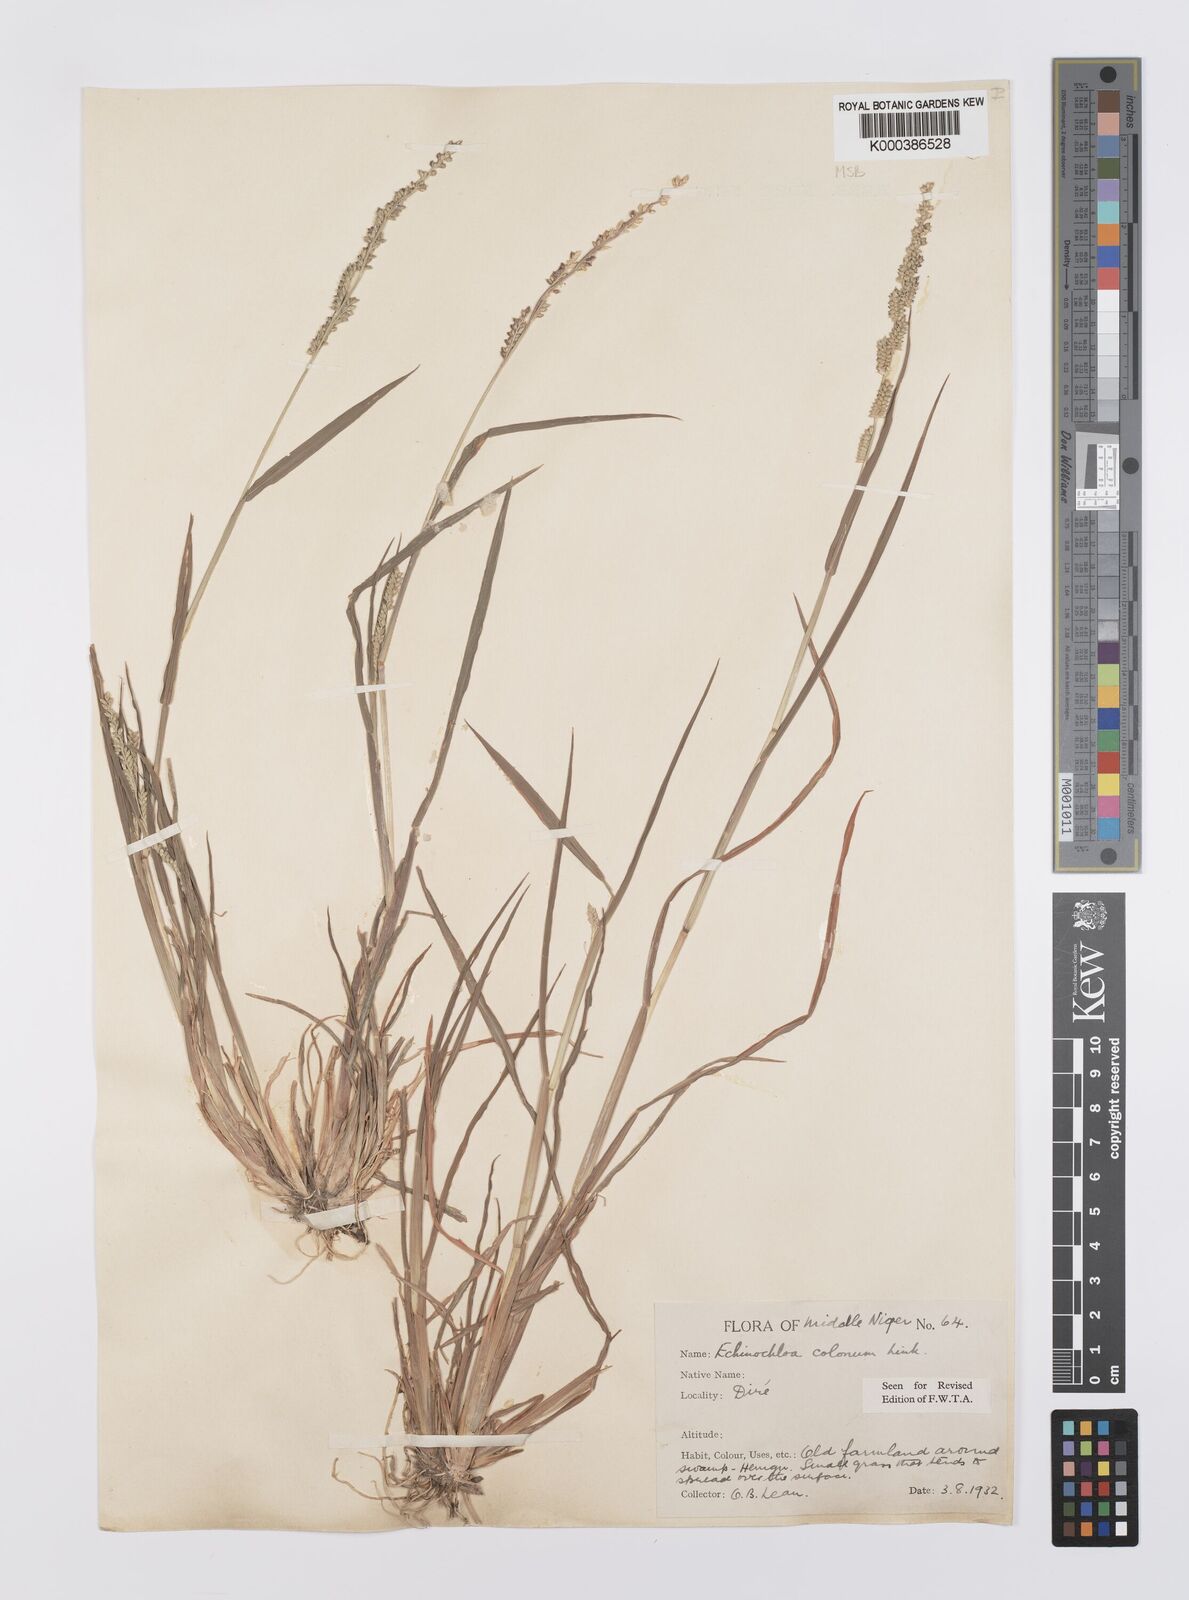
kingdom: Plantae
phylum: Tracheophyta
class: Liliopsida
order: Poales
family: Poaceae
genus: Echinochloa
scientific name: Echinochloa colonum
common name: Jungle rice
